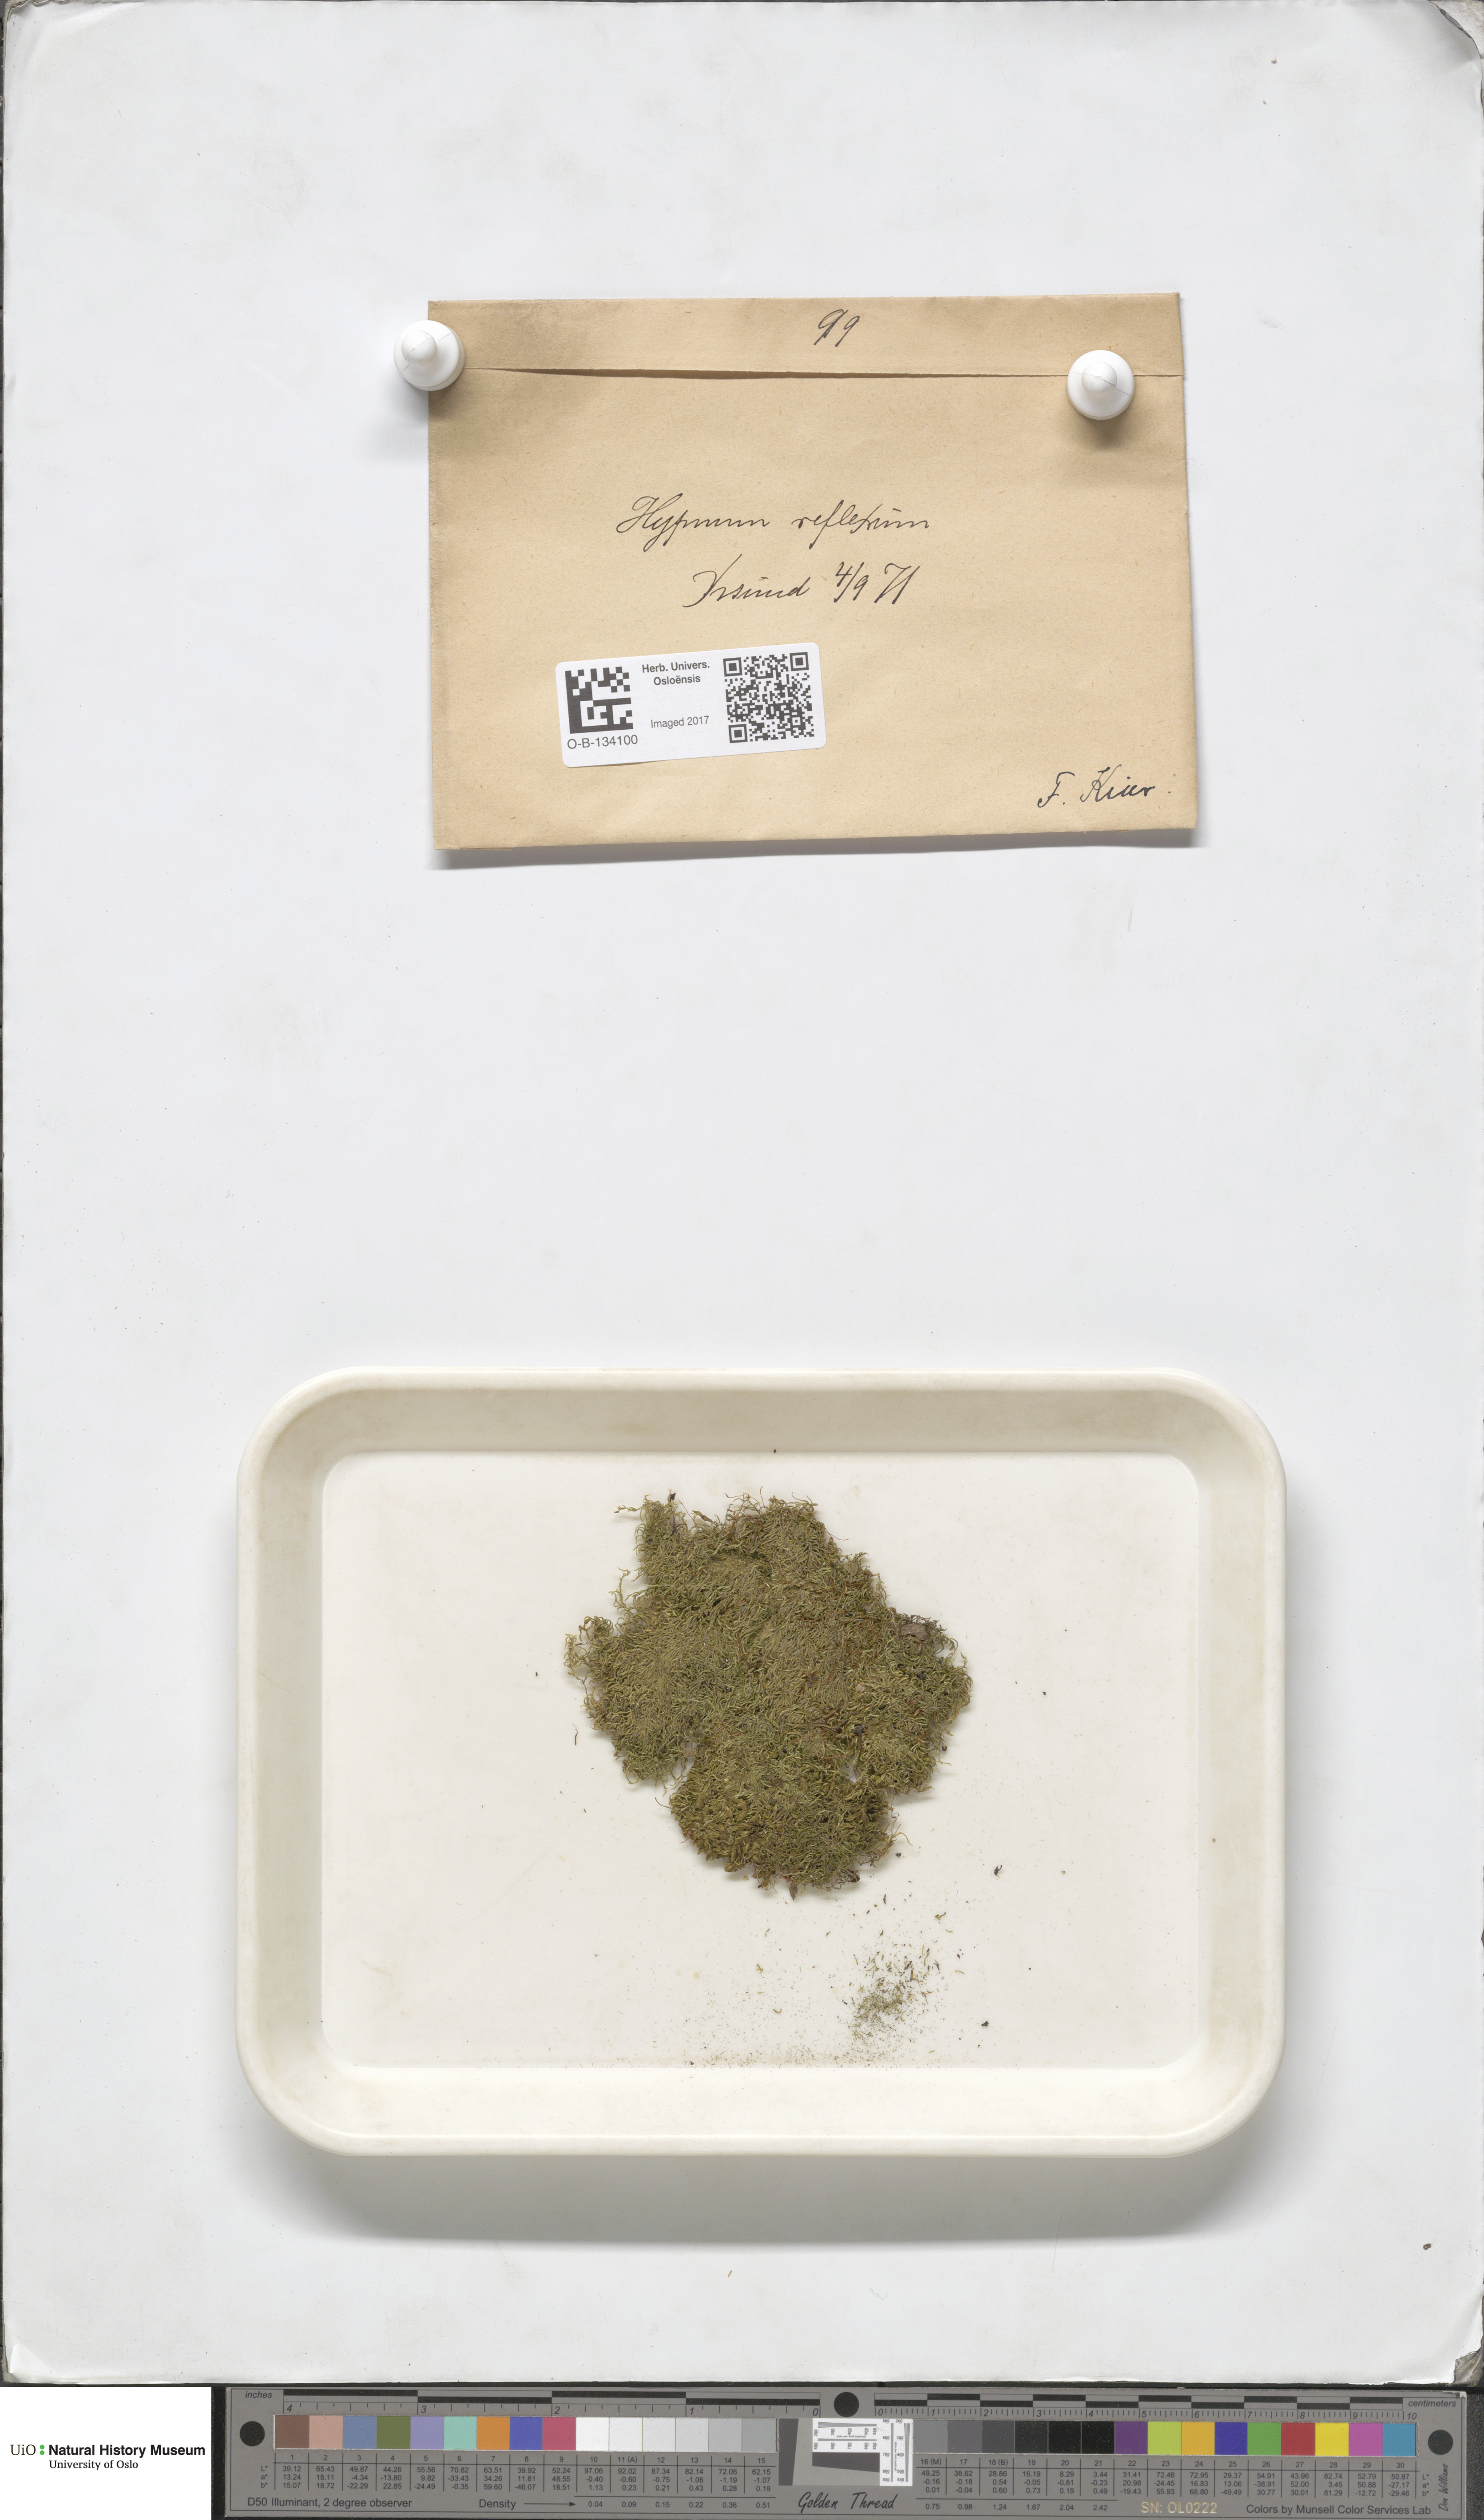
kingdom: Plantae
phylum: Bryophyta
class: Bryopsida
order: Hypnales
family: Brachytheciaceae
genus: Sciuro-hypnum
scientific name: Sciuro-hypnum reflexum
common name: Reflexed feather-moss
